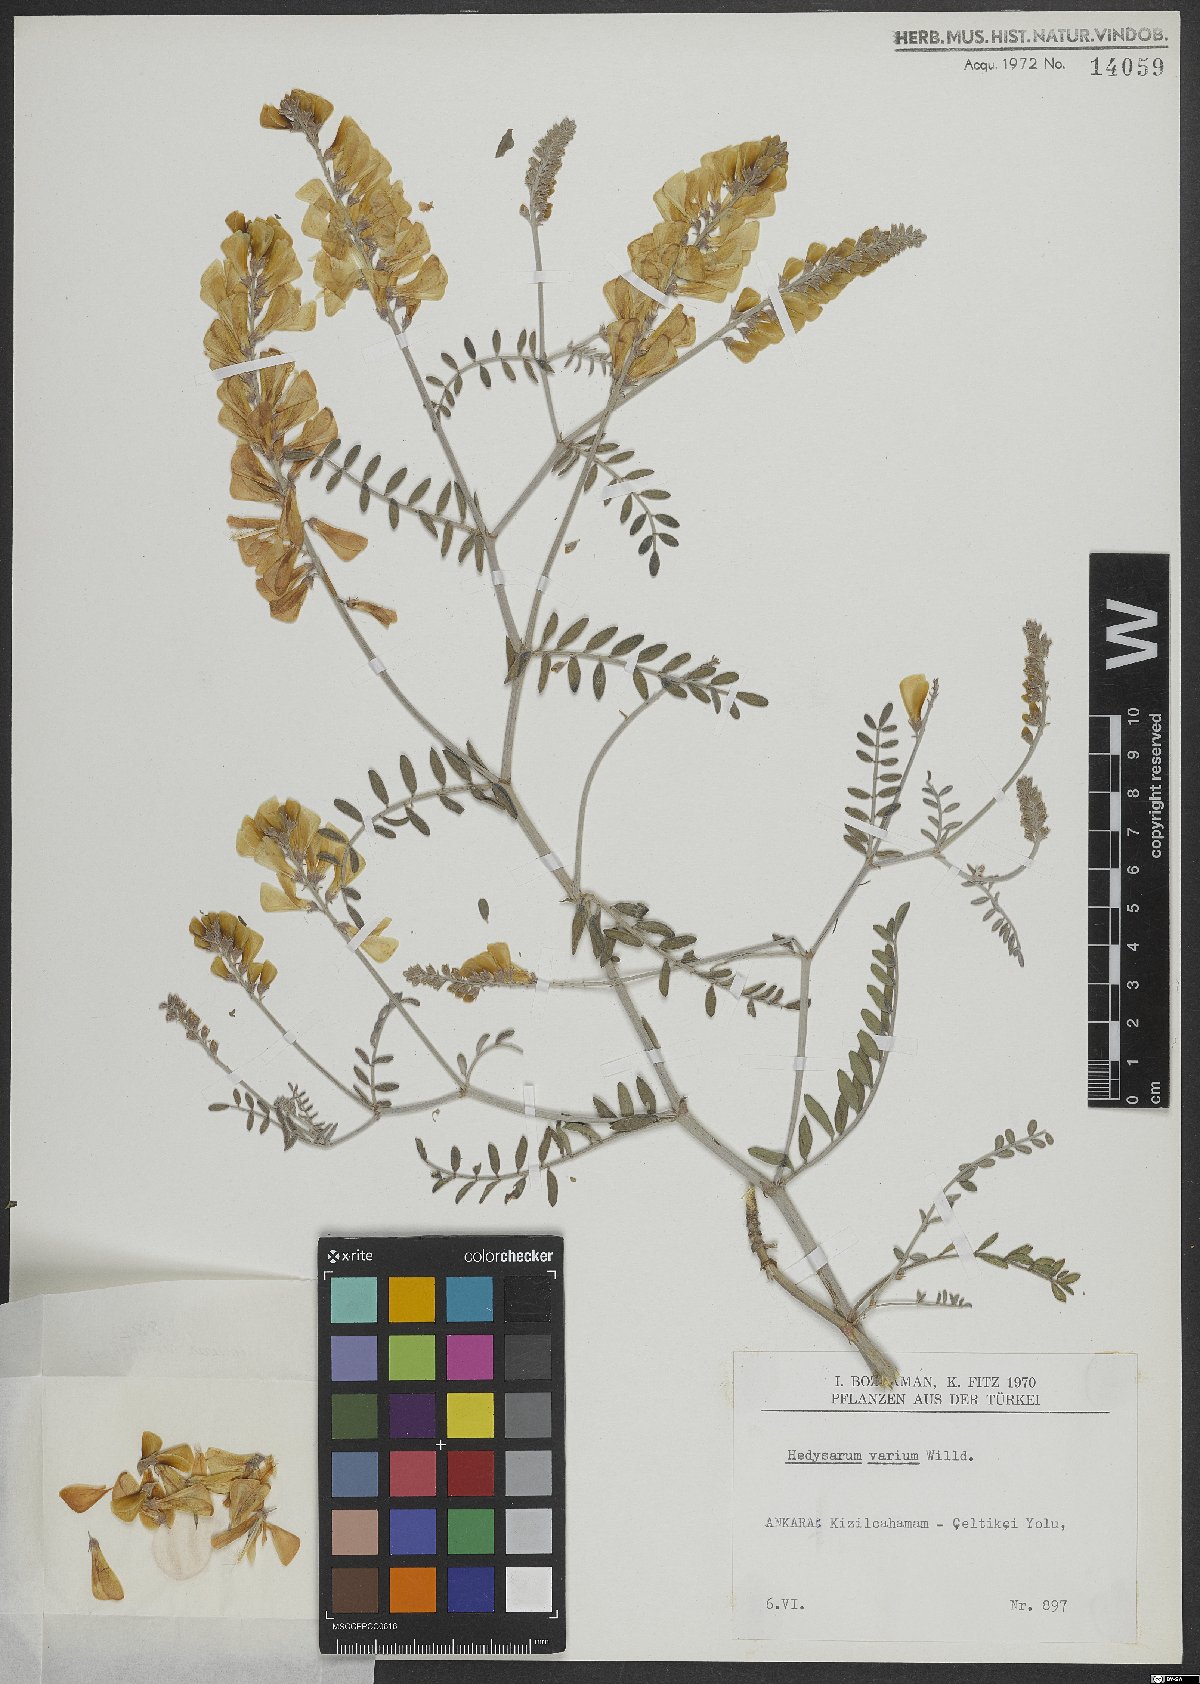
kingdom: Plantae
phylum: Tracheophyta
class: Magnoliopsida
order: Fabales
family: Fabaceae
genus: Hedysarum
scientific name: Hedysarum varium
